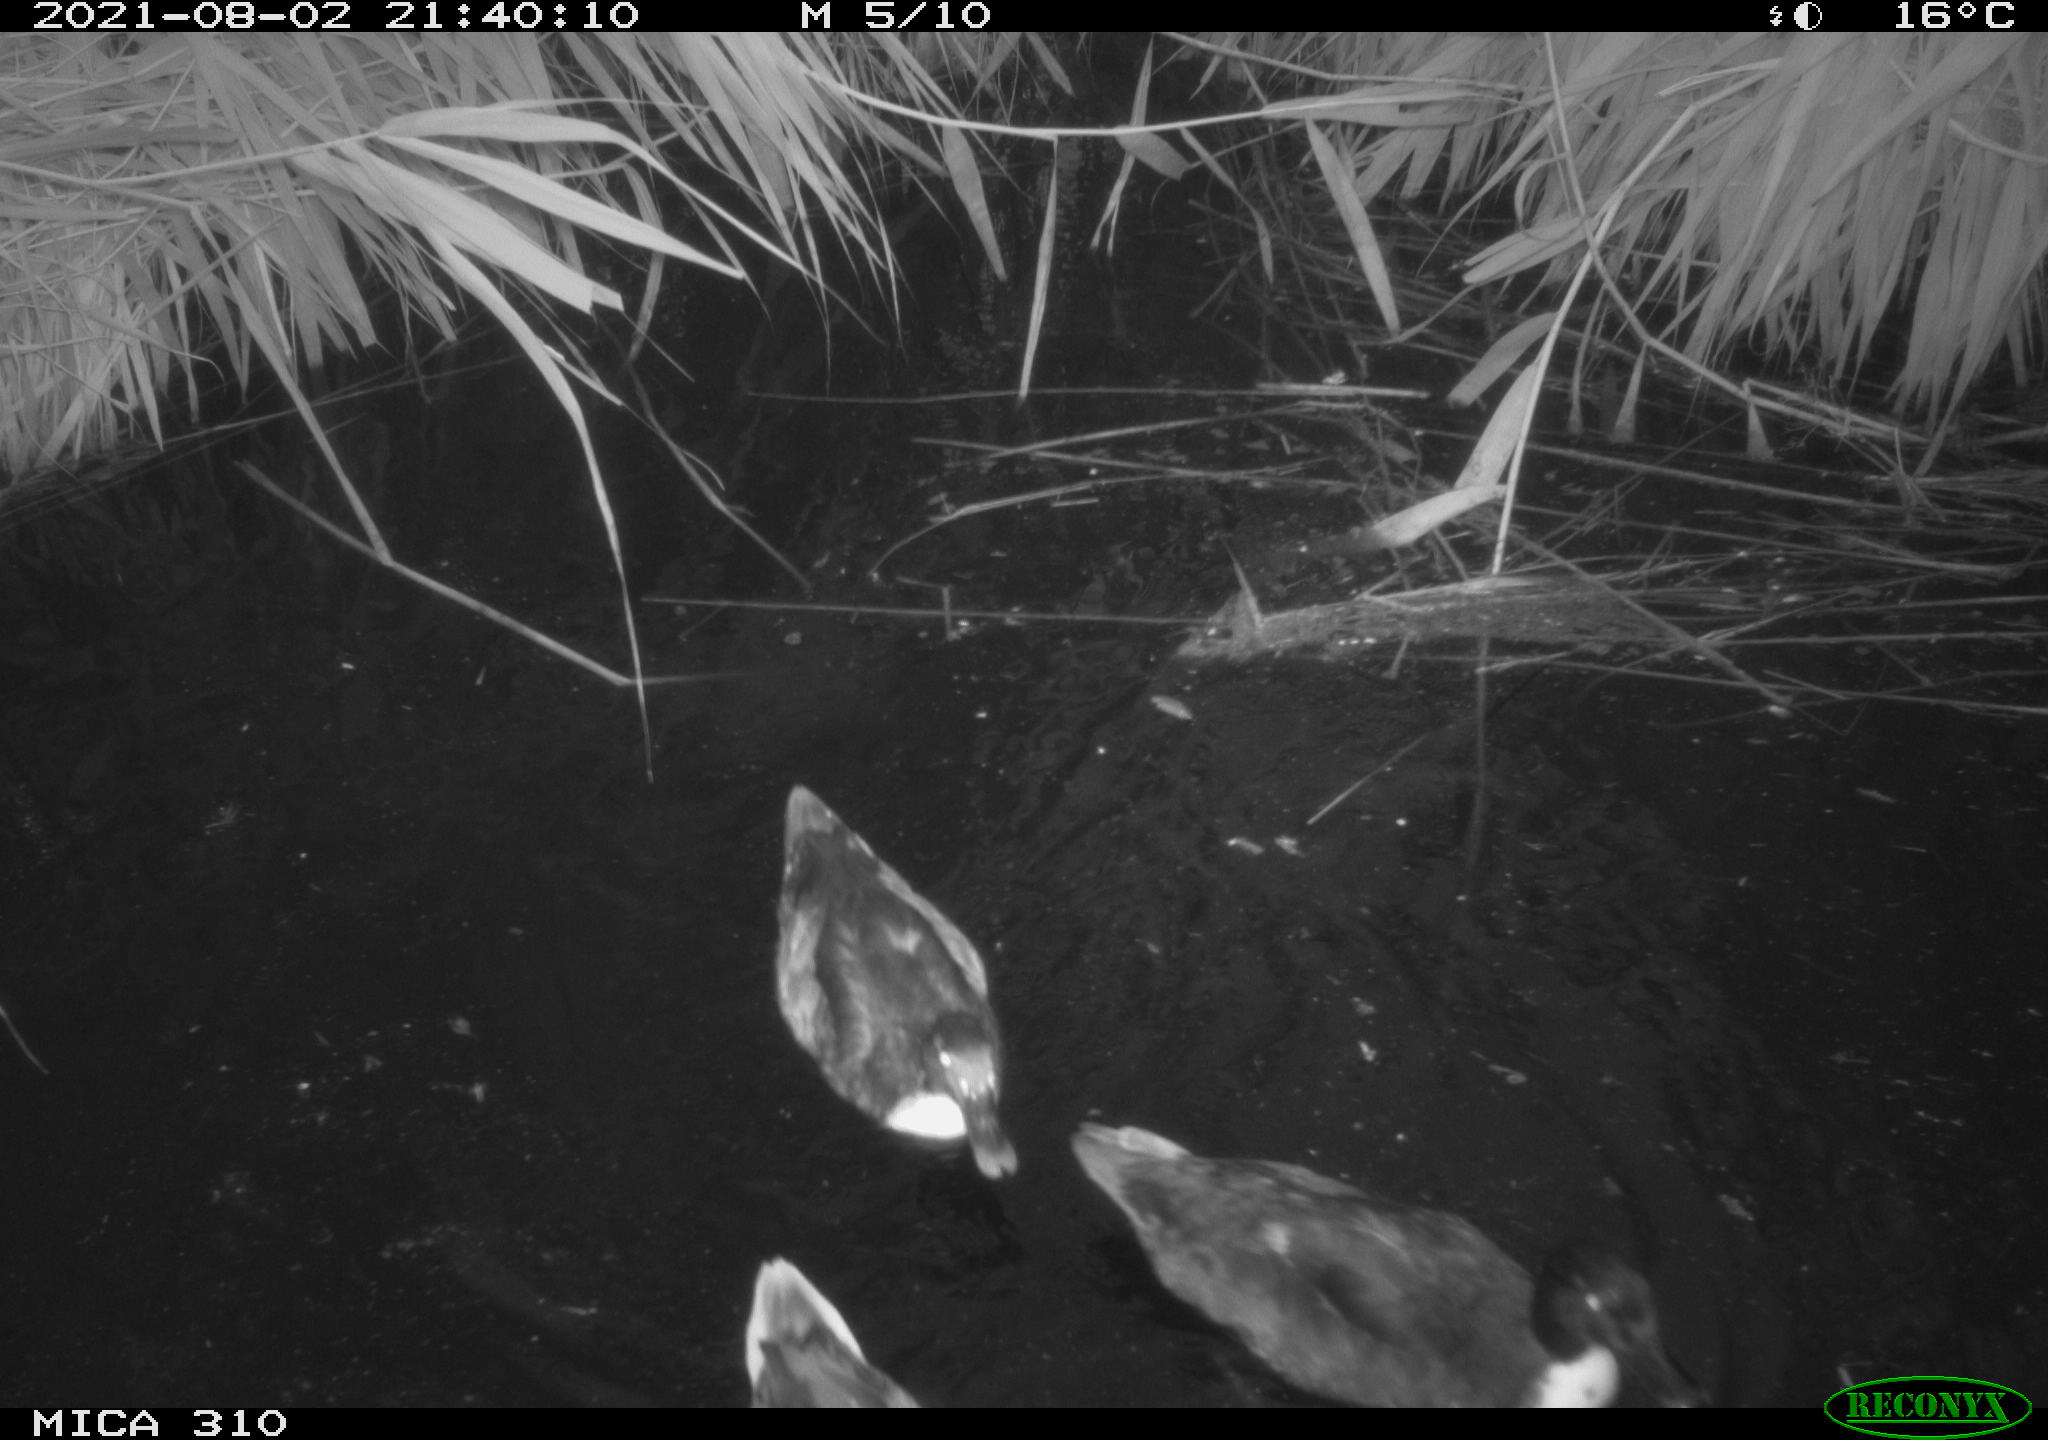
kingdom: Animalia
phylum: Chordata
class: Aves
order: Anseriformes
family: Anatidae
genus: Anas
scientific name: Anas platyrhynchos
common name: Mallard
